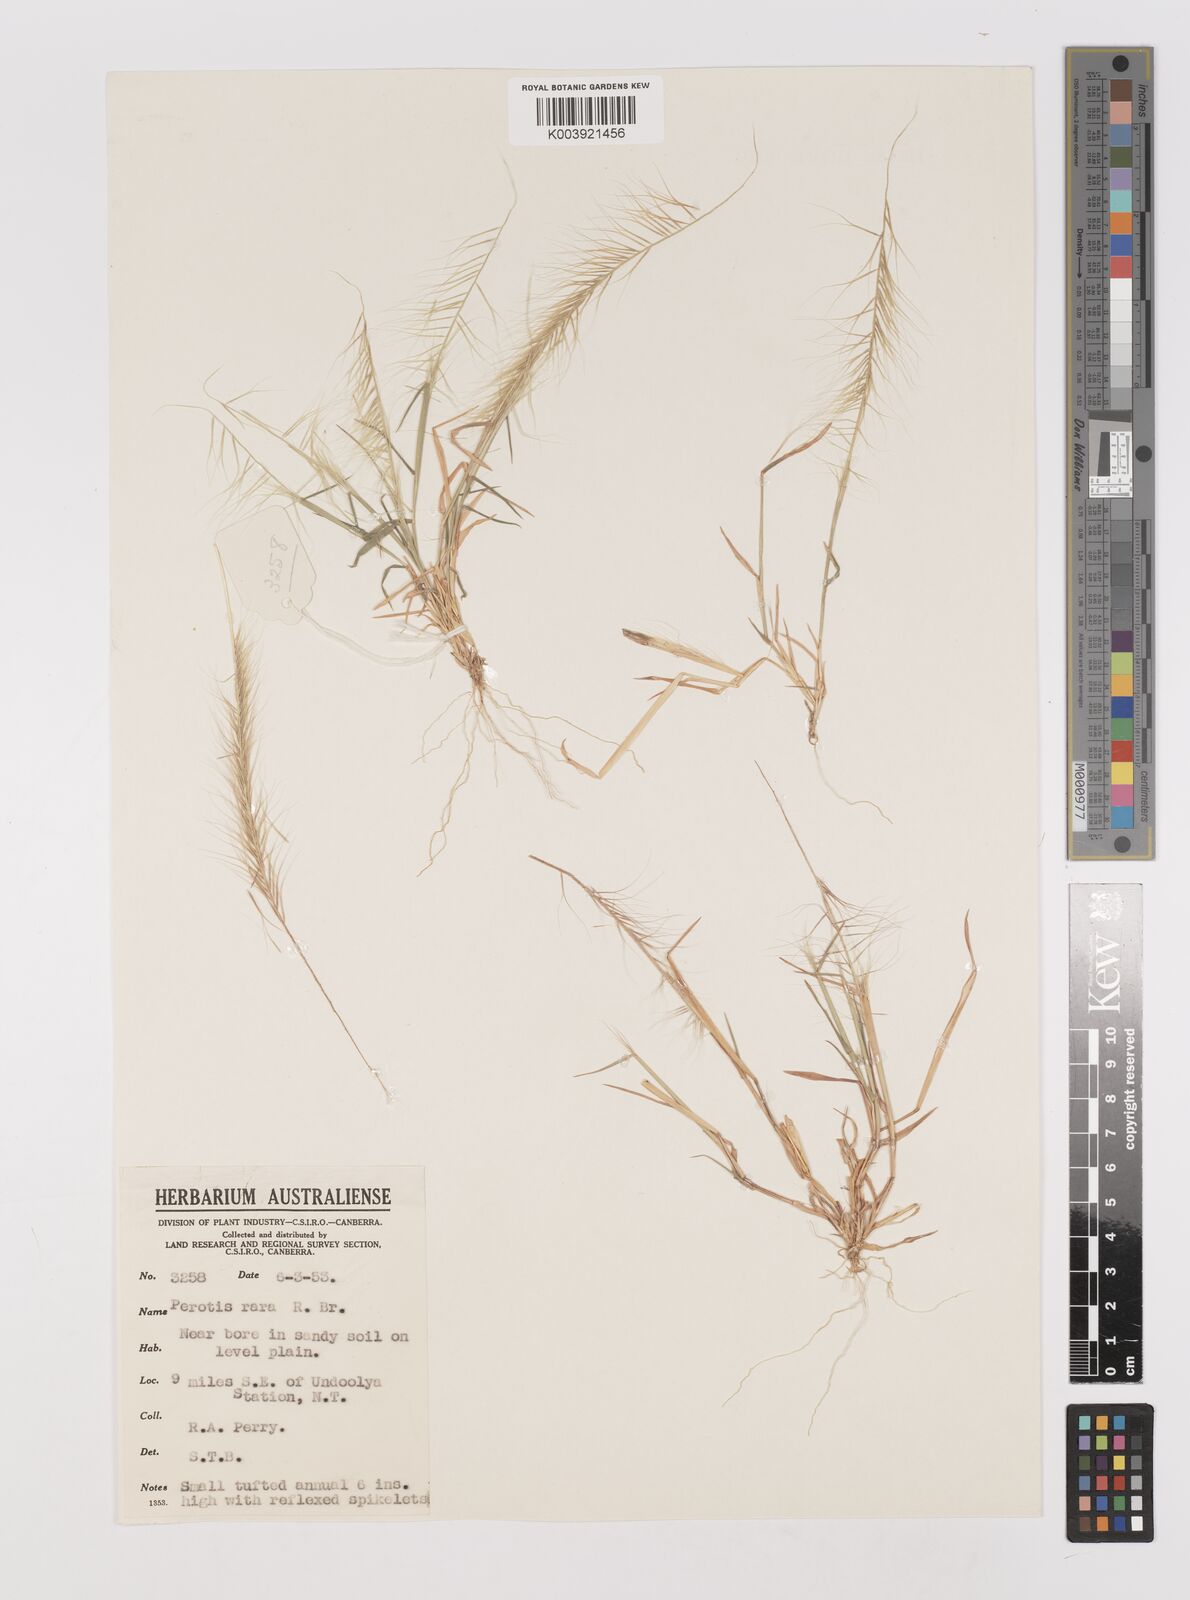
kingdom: Plantae
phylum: Tracheophyta
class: Liliopsida
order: Poales
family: Poaceae
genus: Perotis
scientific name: Perotis rara
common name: Comet grass
